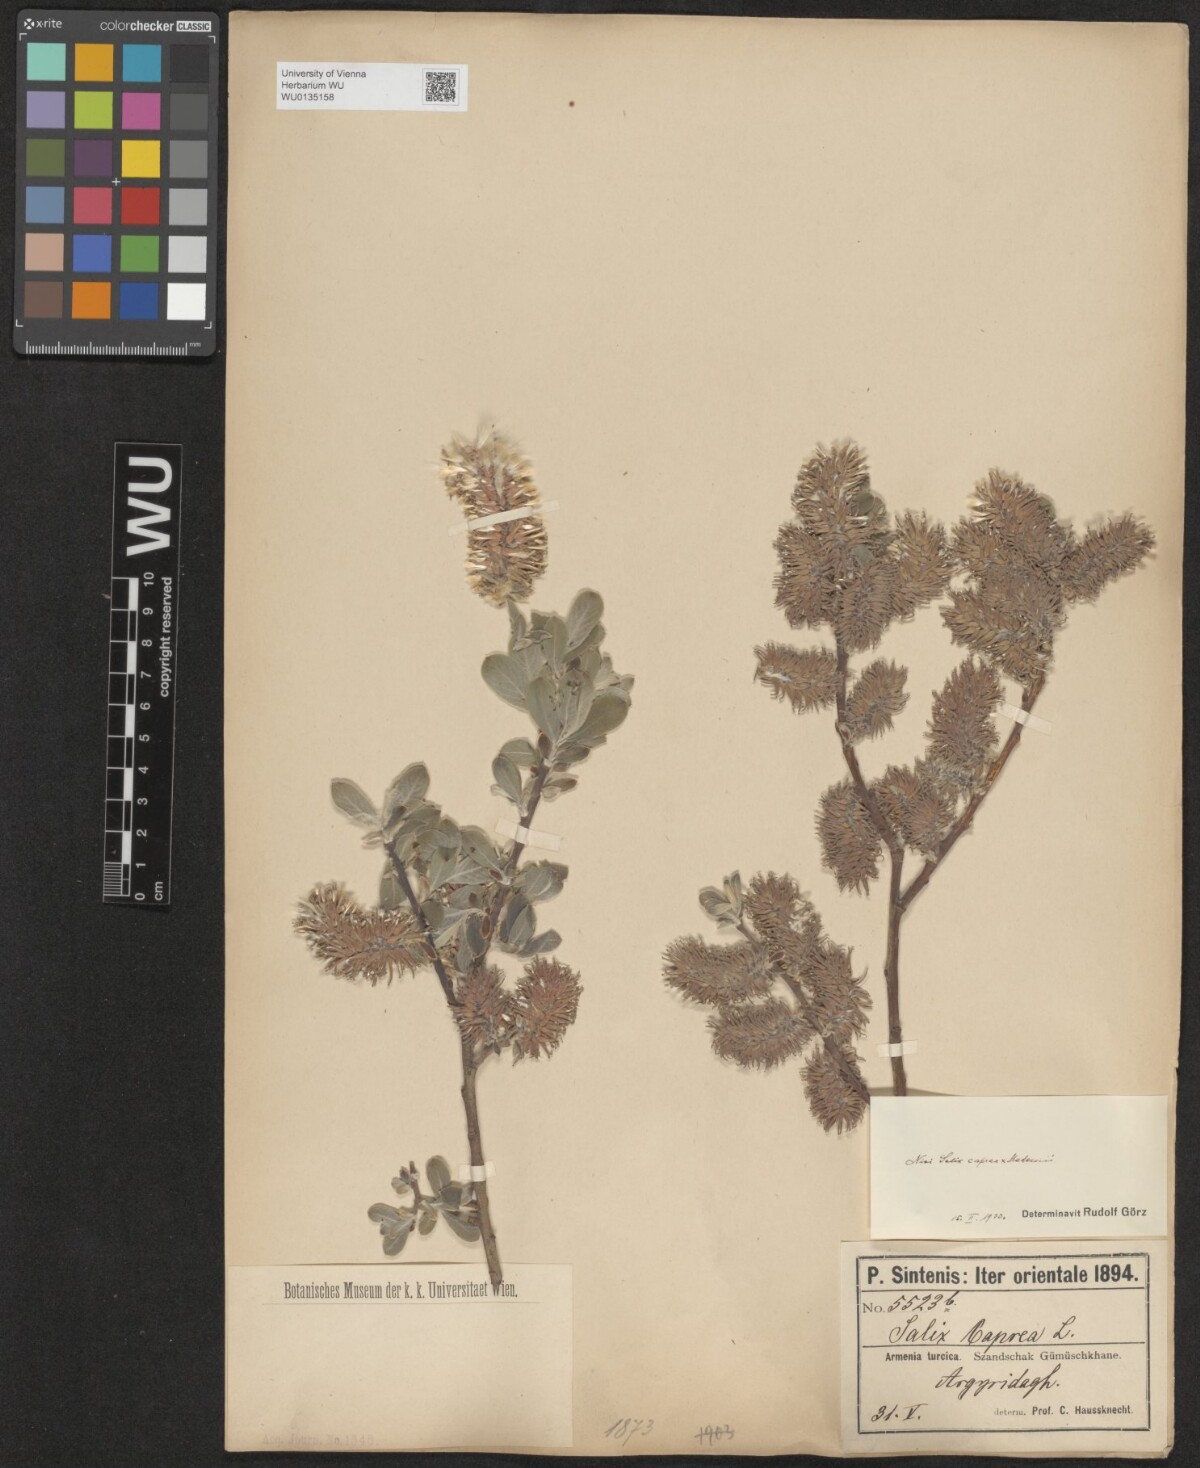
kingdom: Plantae
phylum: Tracheophyta
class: Magnoliopsida
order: Malpighiales
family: Salicaceae
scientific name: Salicaceae
